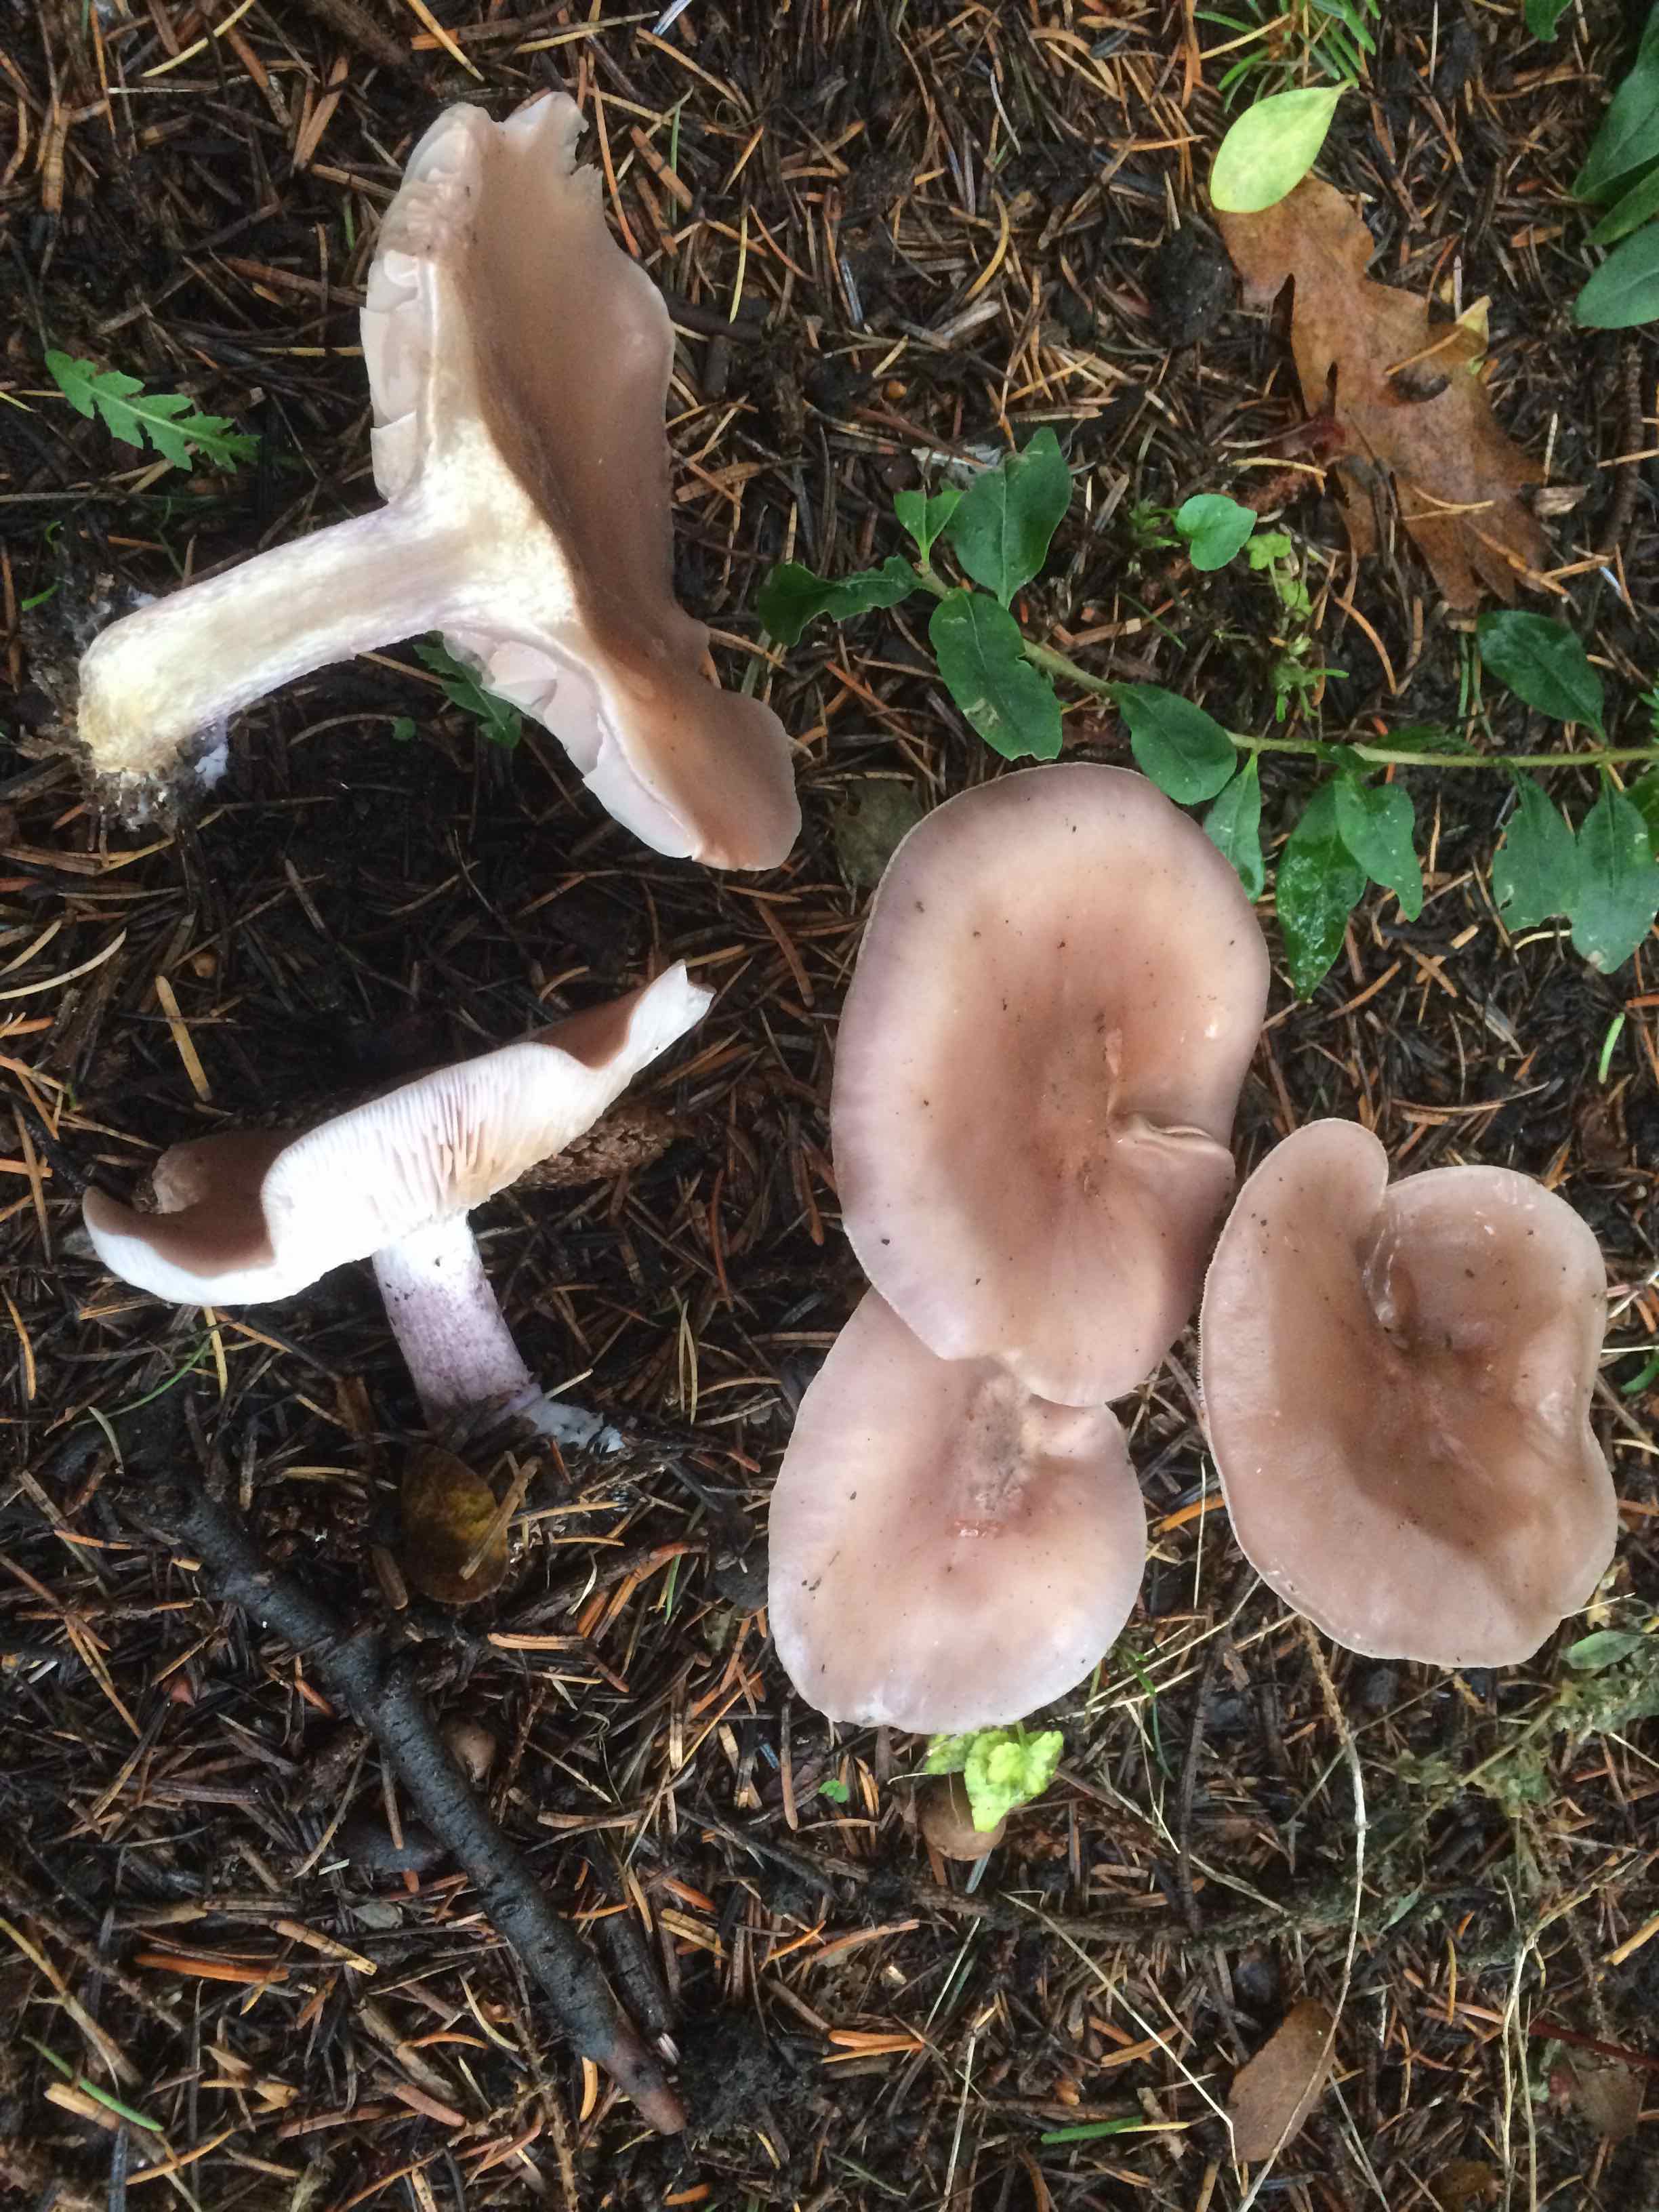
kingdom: Fungi
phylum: Basidiomycota
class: Agaricomycetes
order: Agaricales
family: Tricholomataceae
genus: Lepista
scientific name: Lepista personata
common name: bleg hekseringshat
